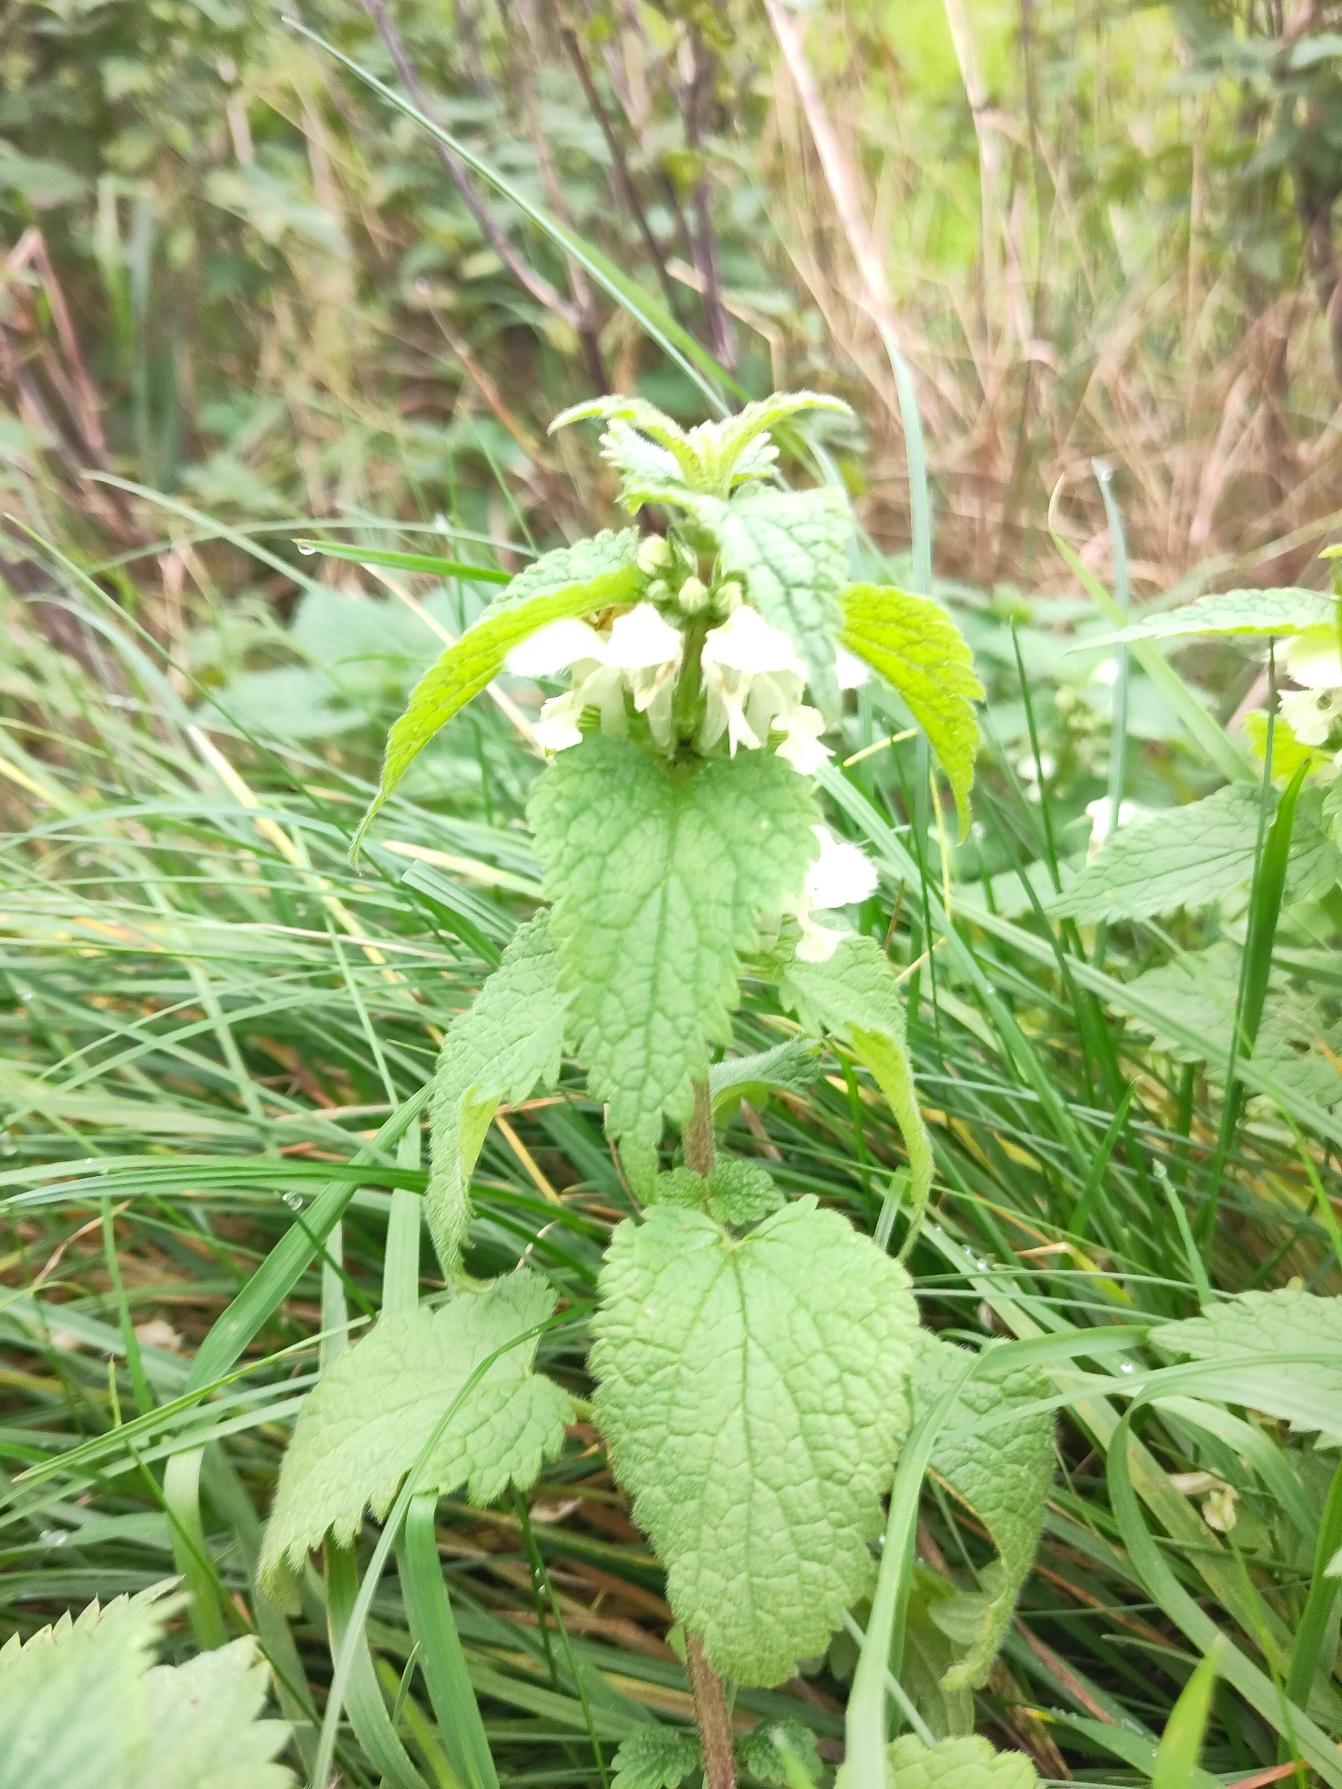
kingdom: Plantae
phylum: Tracheophyta
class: Magnoliopsida
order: Lamiales
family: Lamiaceae
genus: Lamium
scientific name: Lamium album
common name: Døvnælde
